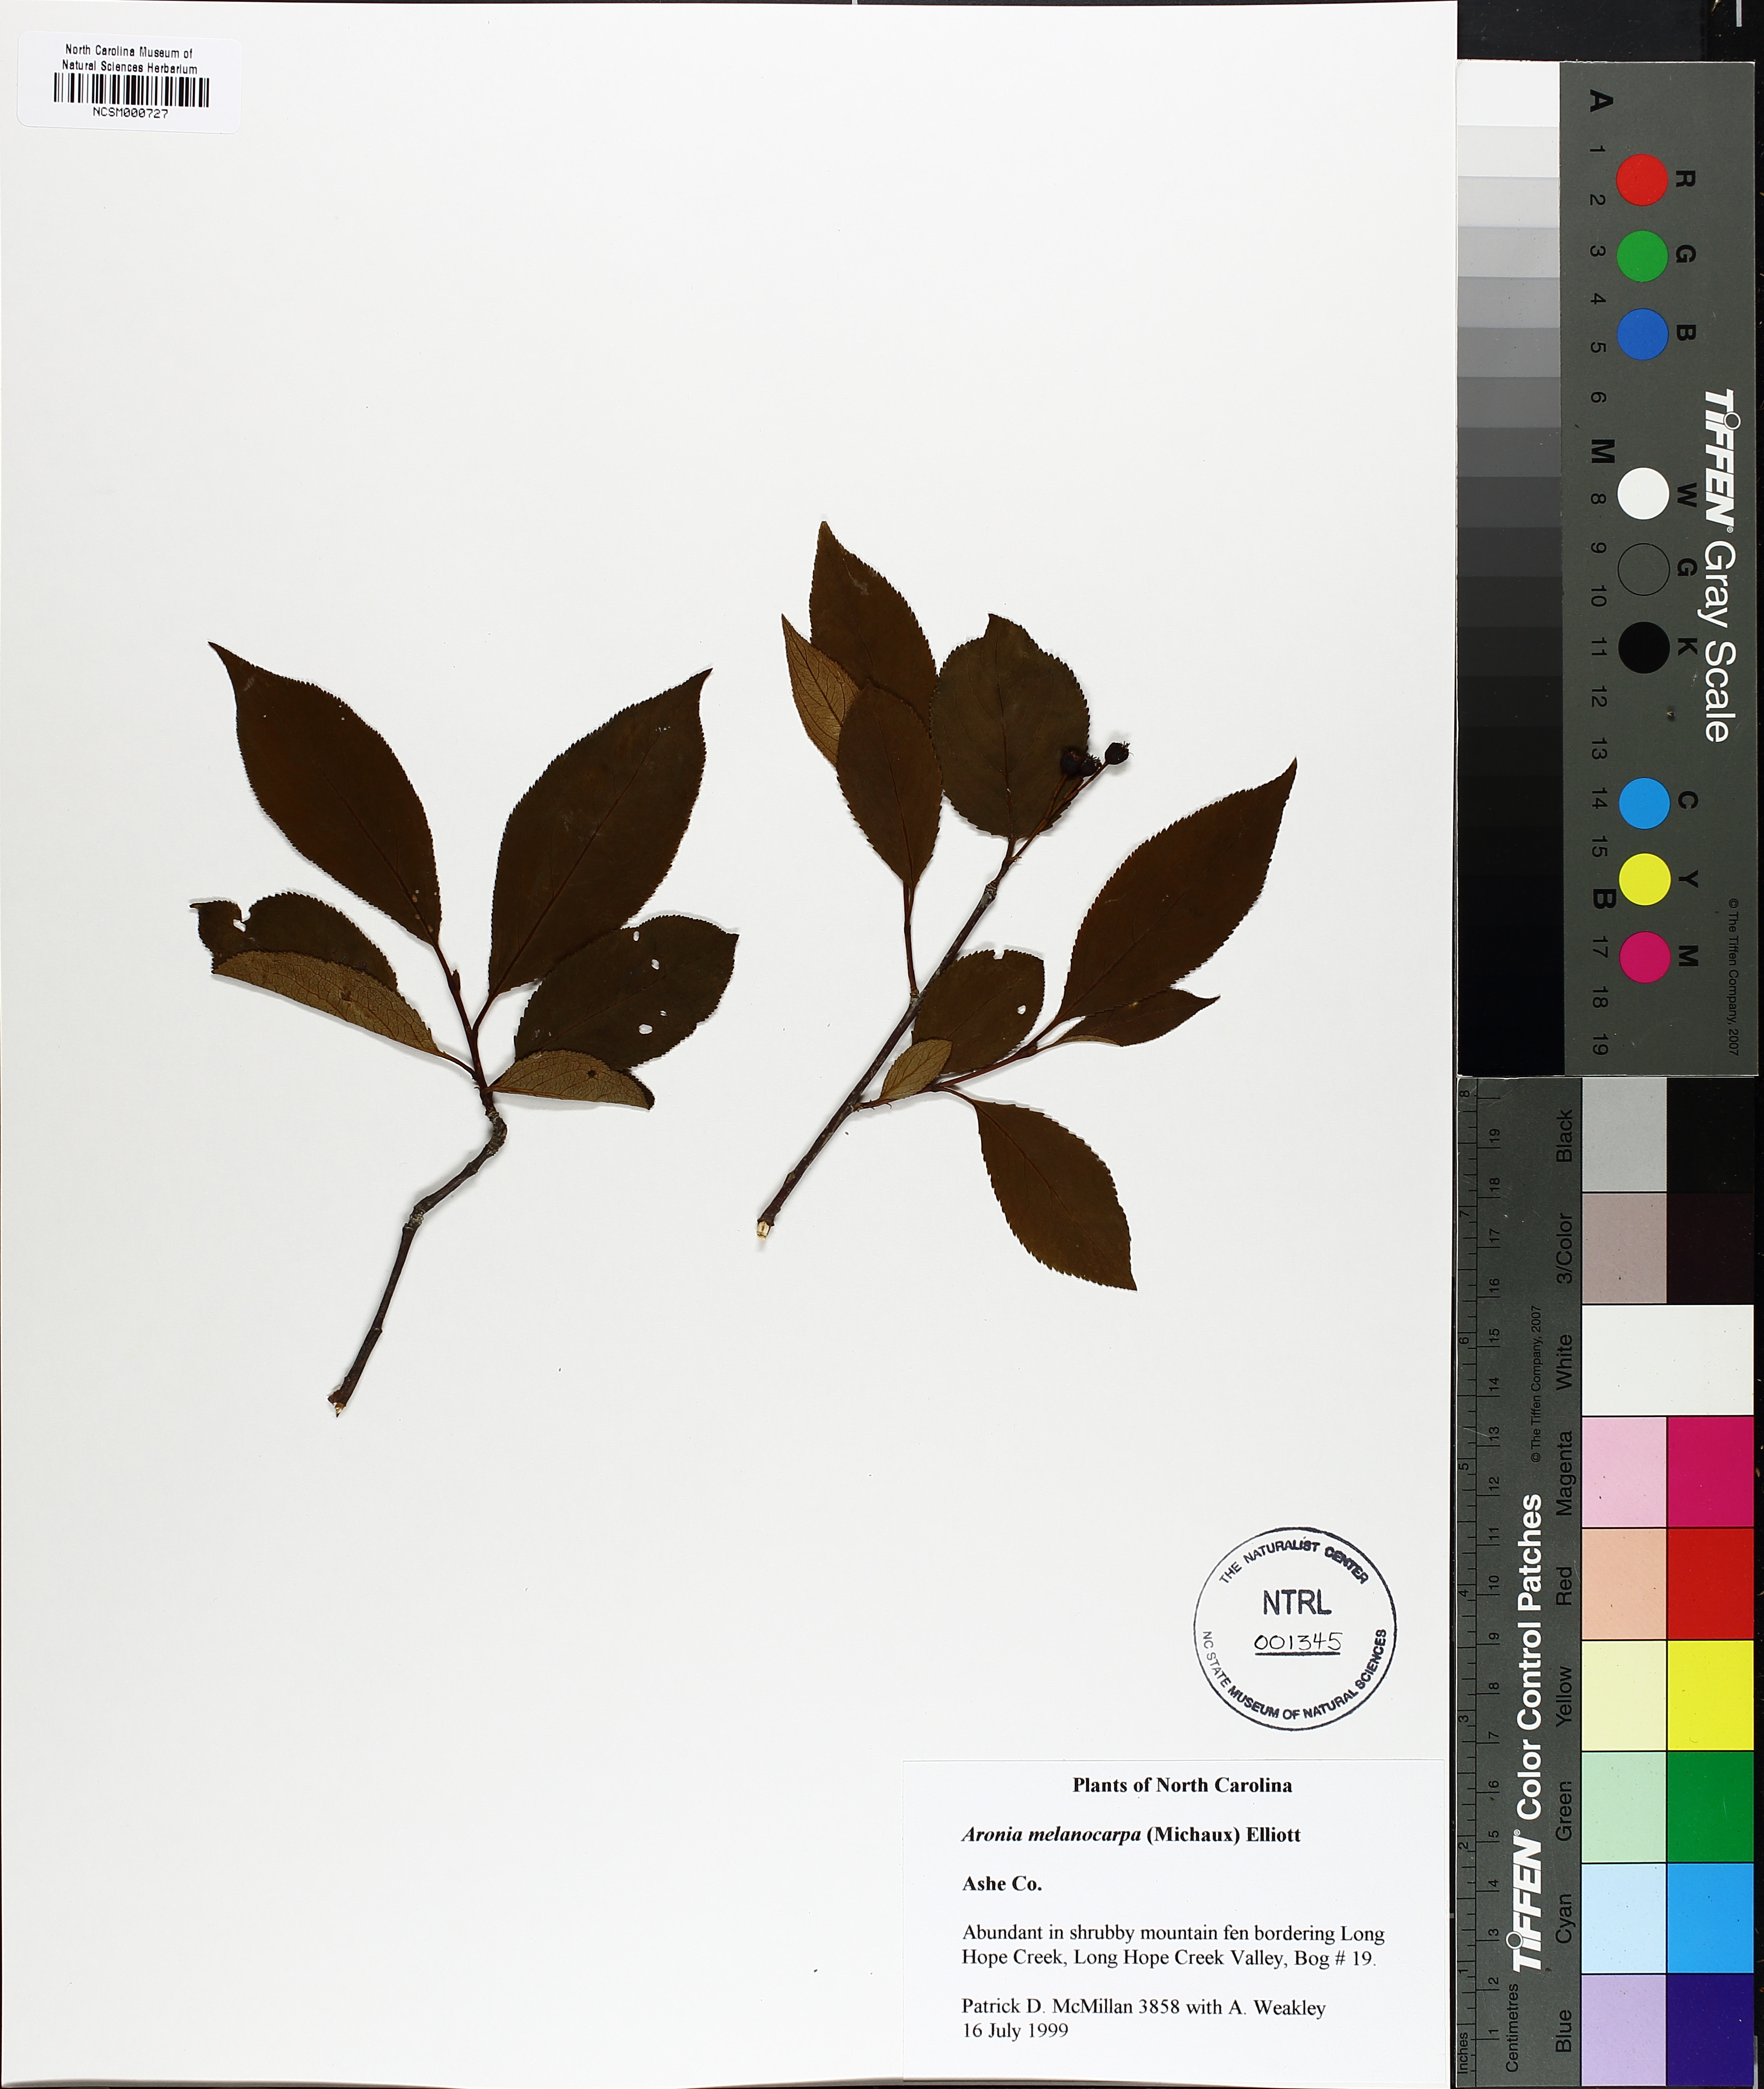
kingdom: Plantae
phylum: Tracheophyta
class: Magnoliopsida
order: Rosales
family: Rosaceae
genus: Aronia
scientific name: Aronia melanocarpa
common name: Black chokeberry
